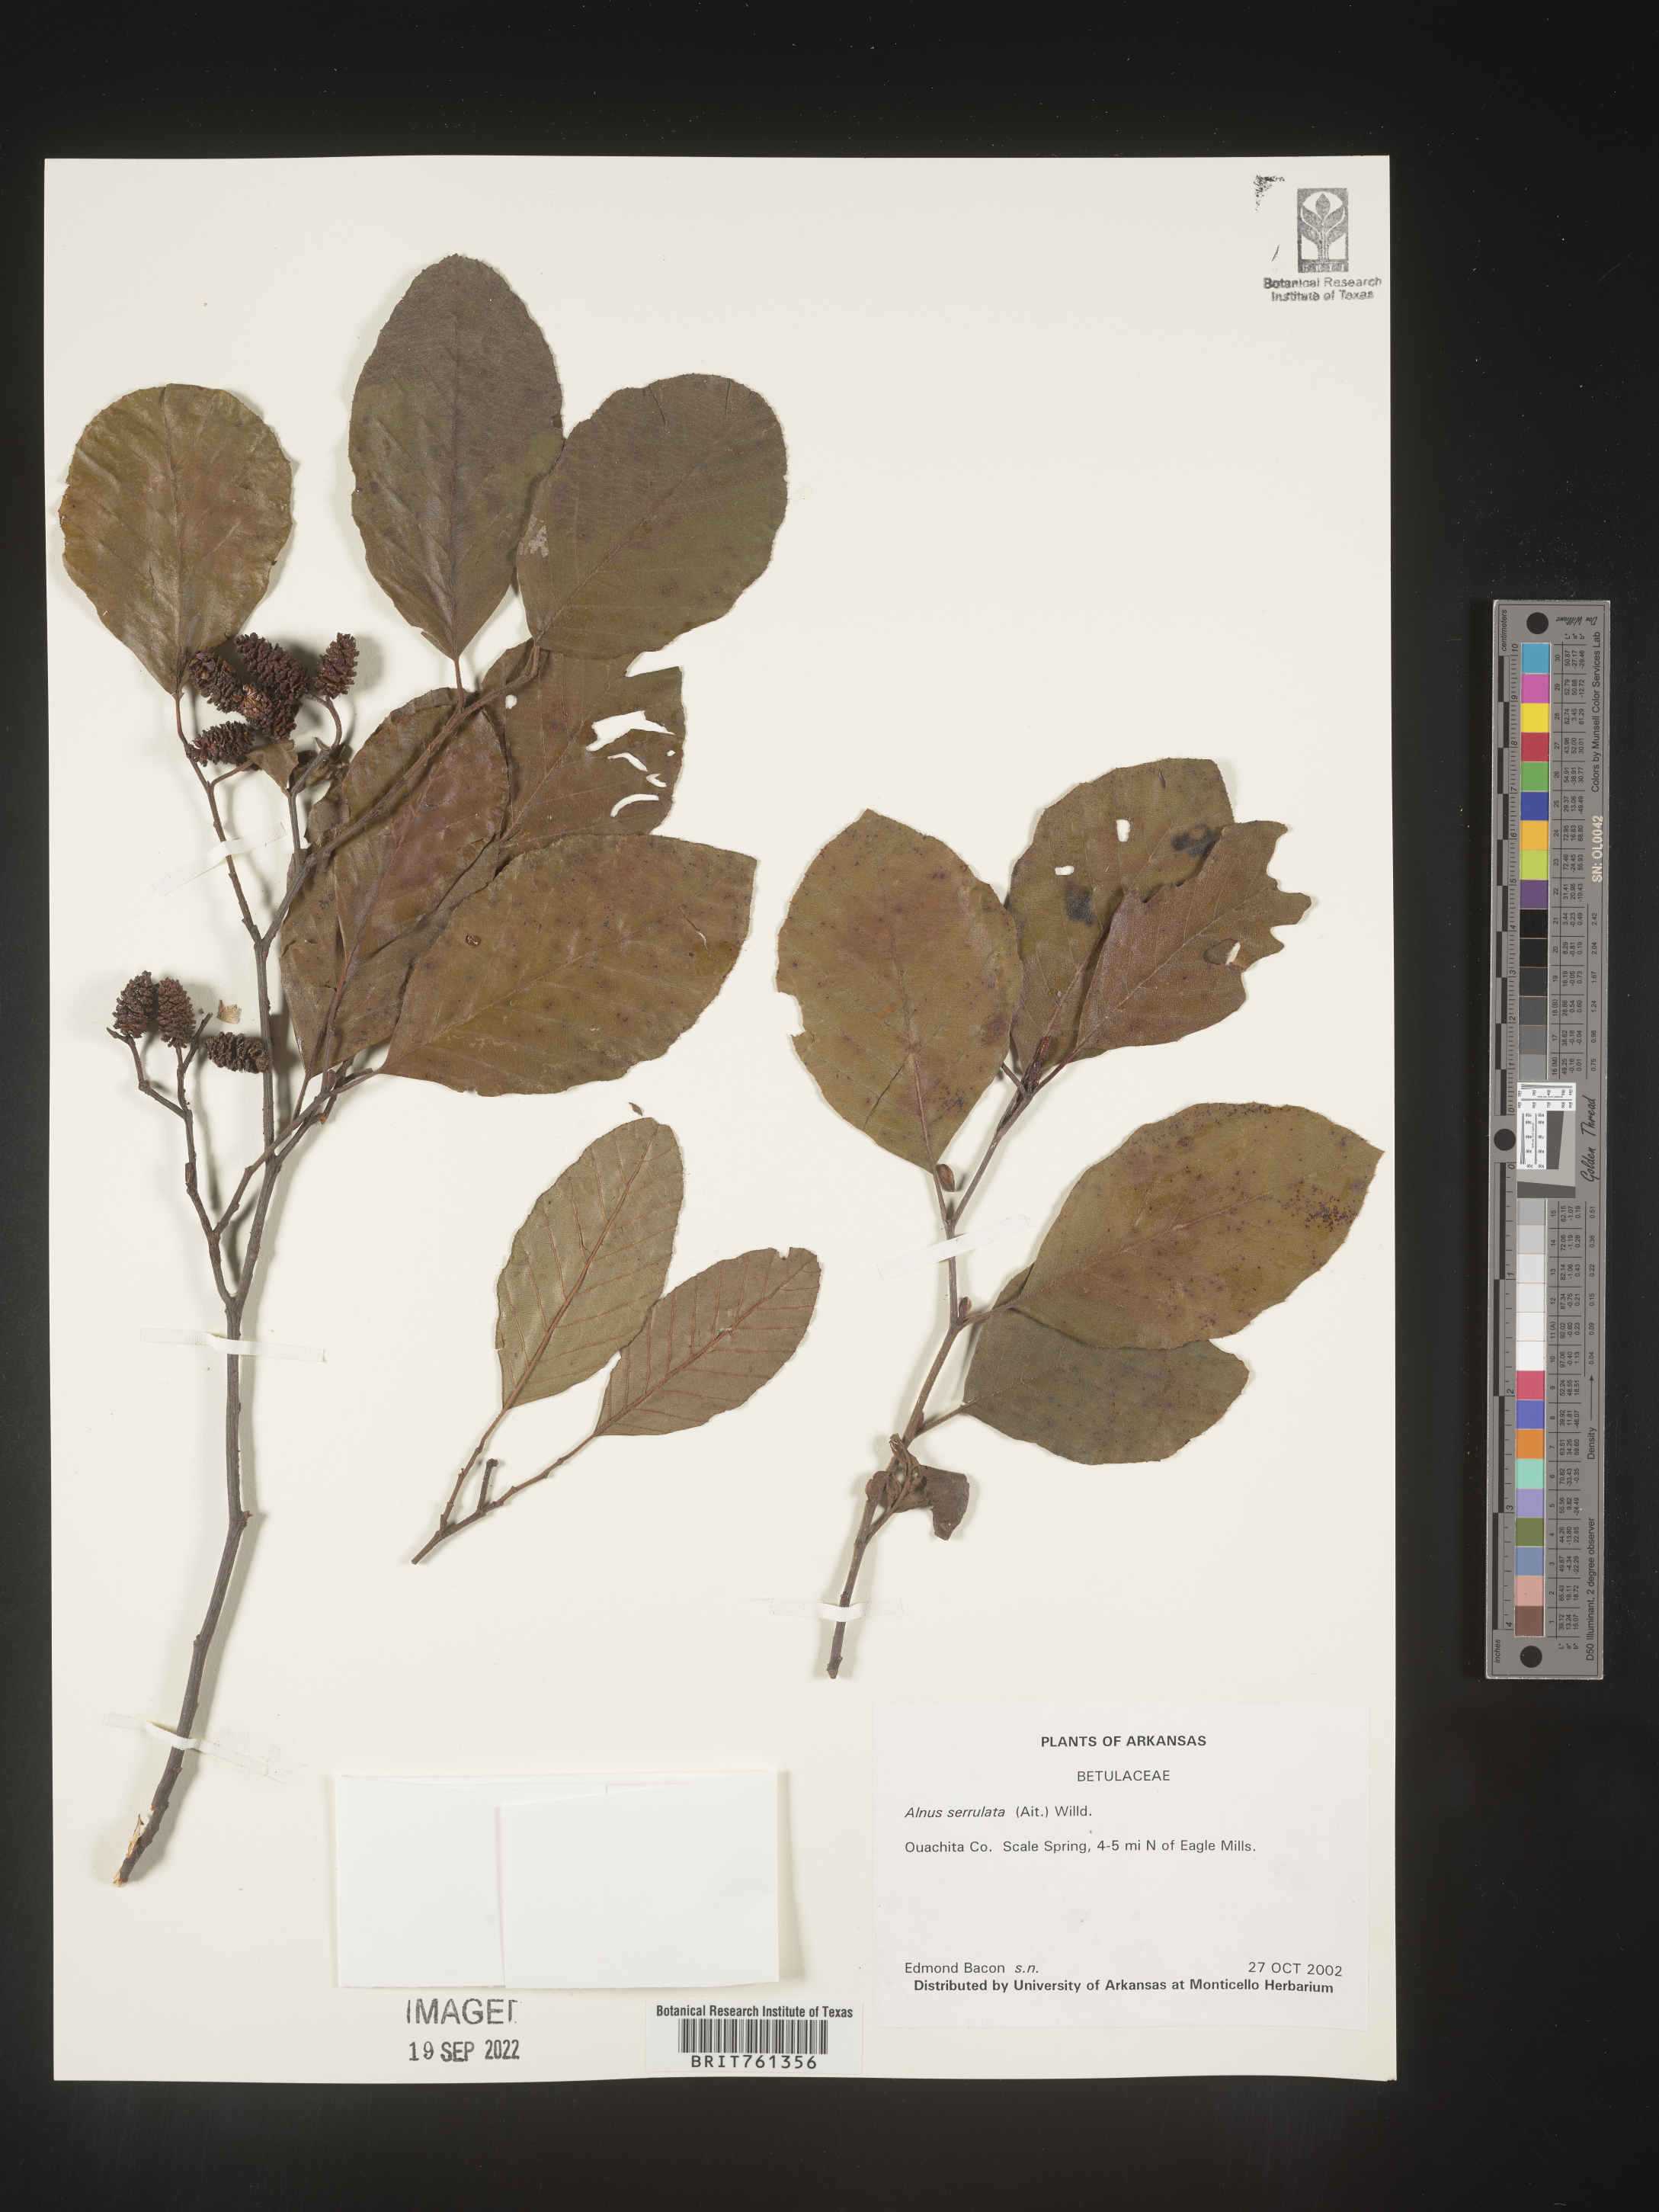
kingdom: Plantae
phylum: Tracheophyta
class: Magnoliopsida
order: Fagales
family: Betulaceae
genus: Alnus
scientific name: Alnus serrulata
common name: Hazel alder
